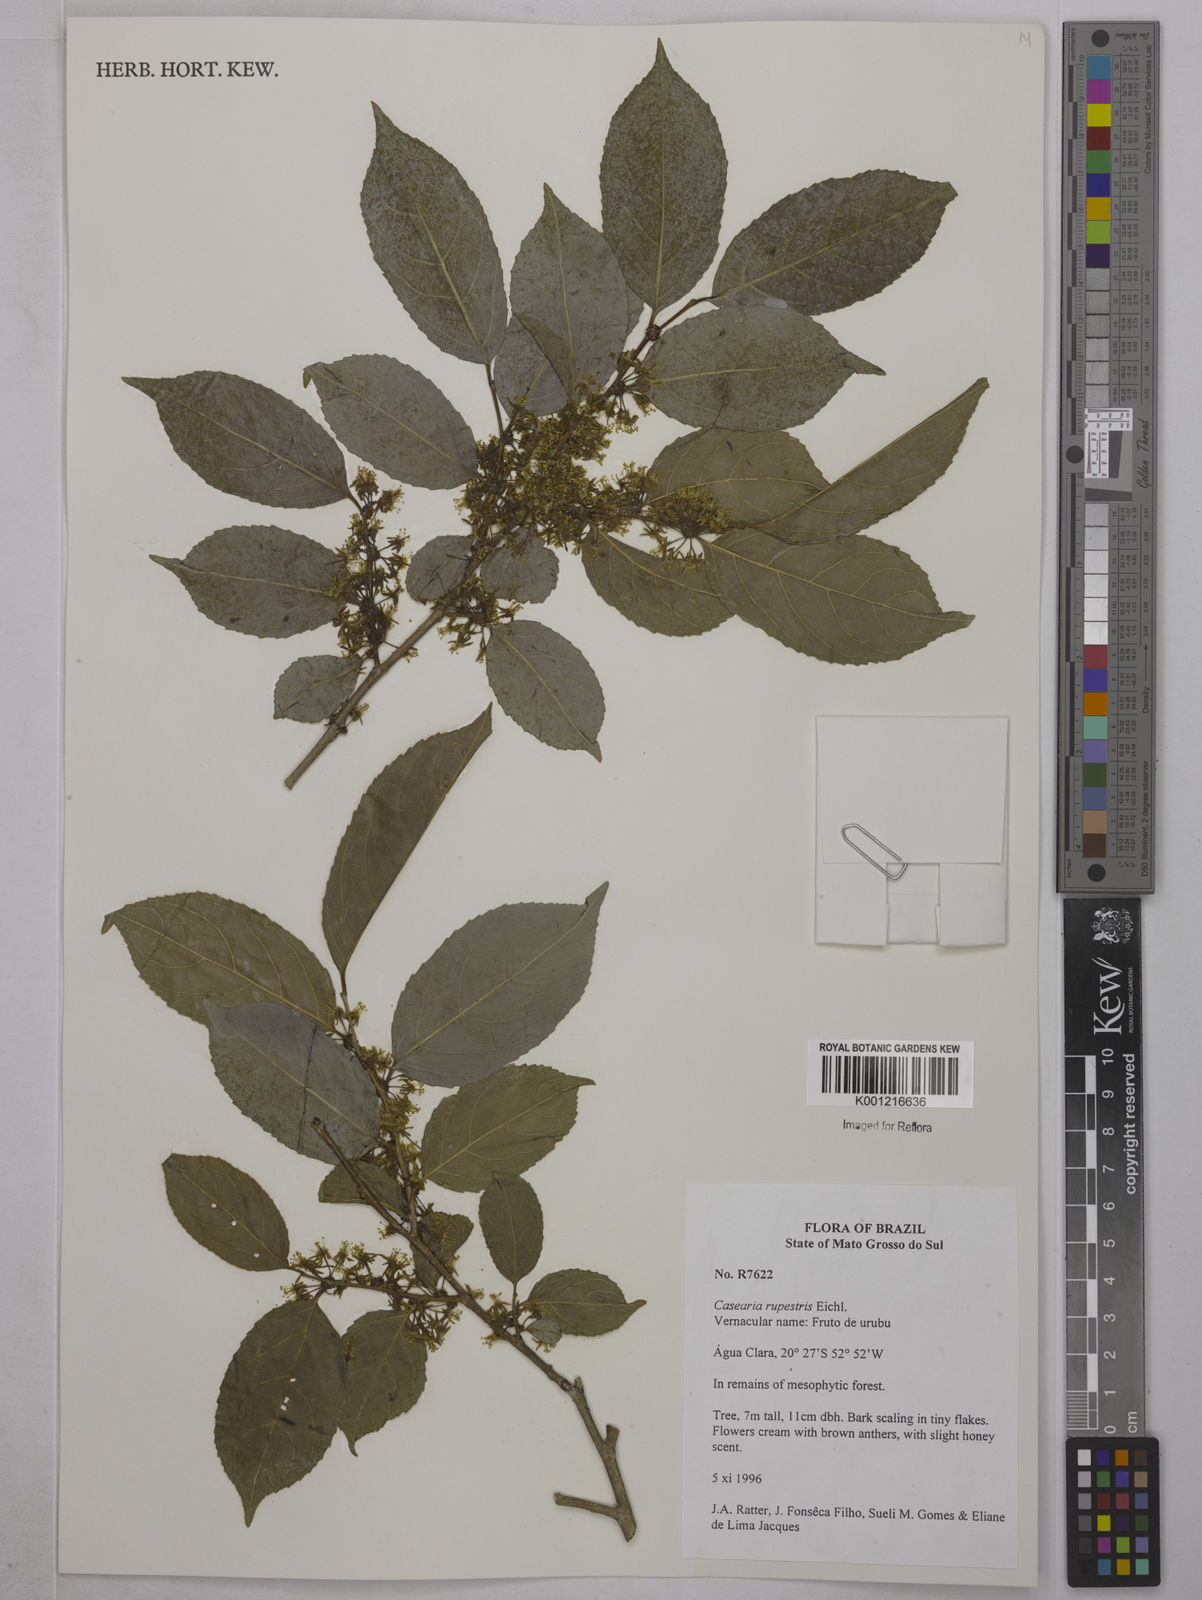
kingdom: Plantae
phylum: Tracheophyta
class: Magnoliopsida
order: Malpighiales
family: Salicaceae
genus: Casearia
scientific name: Casearia rupestris
